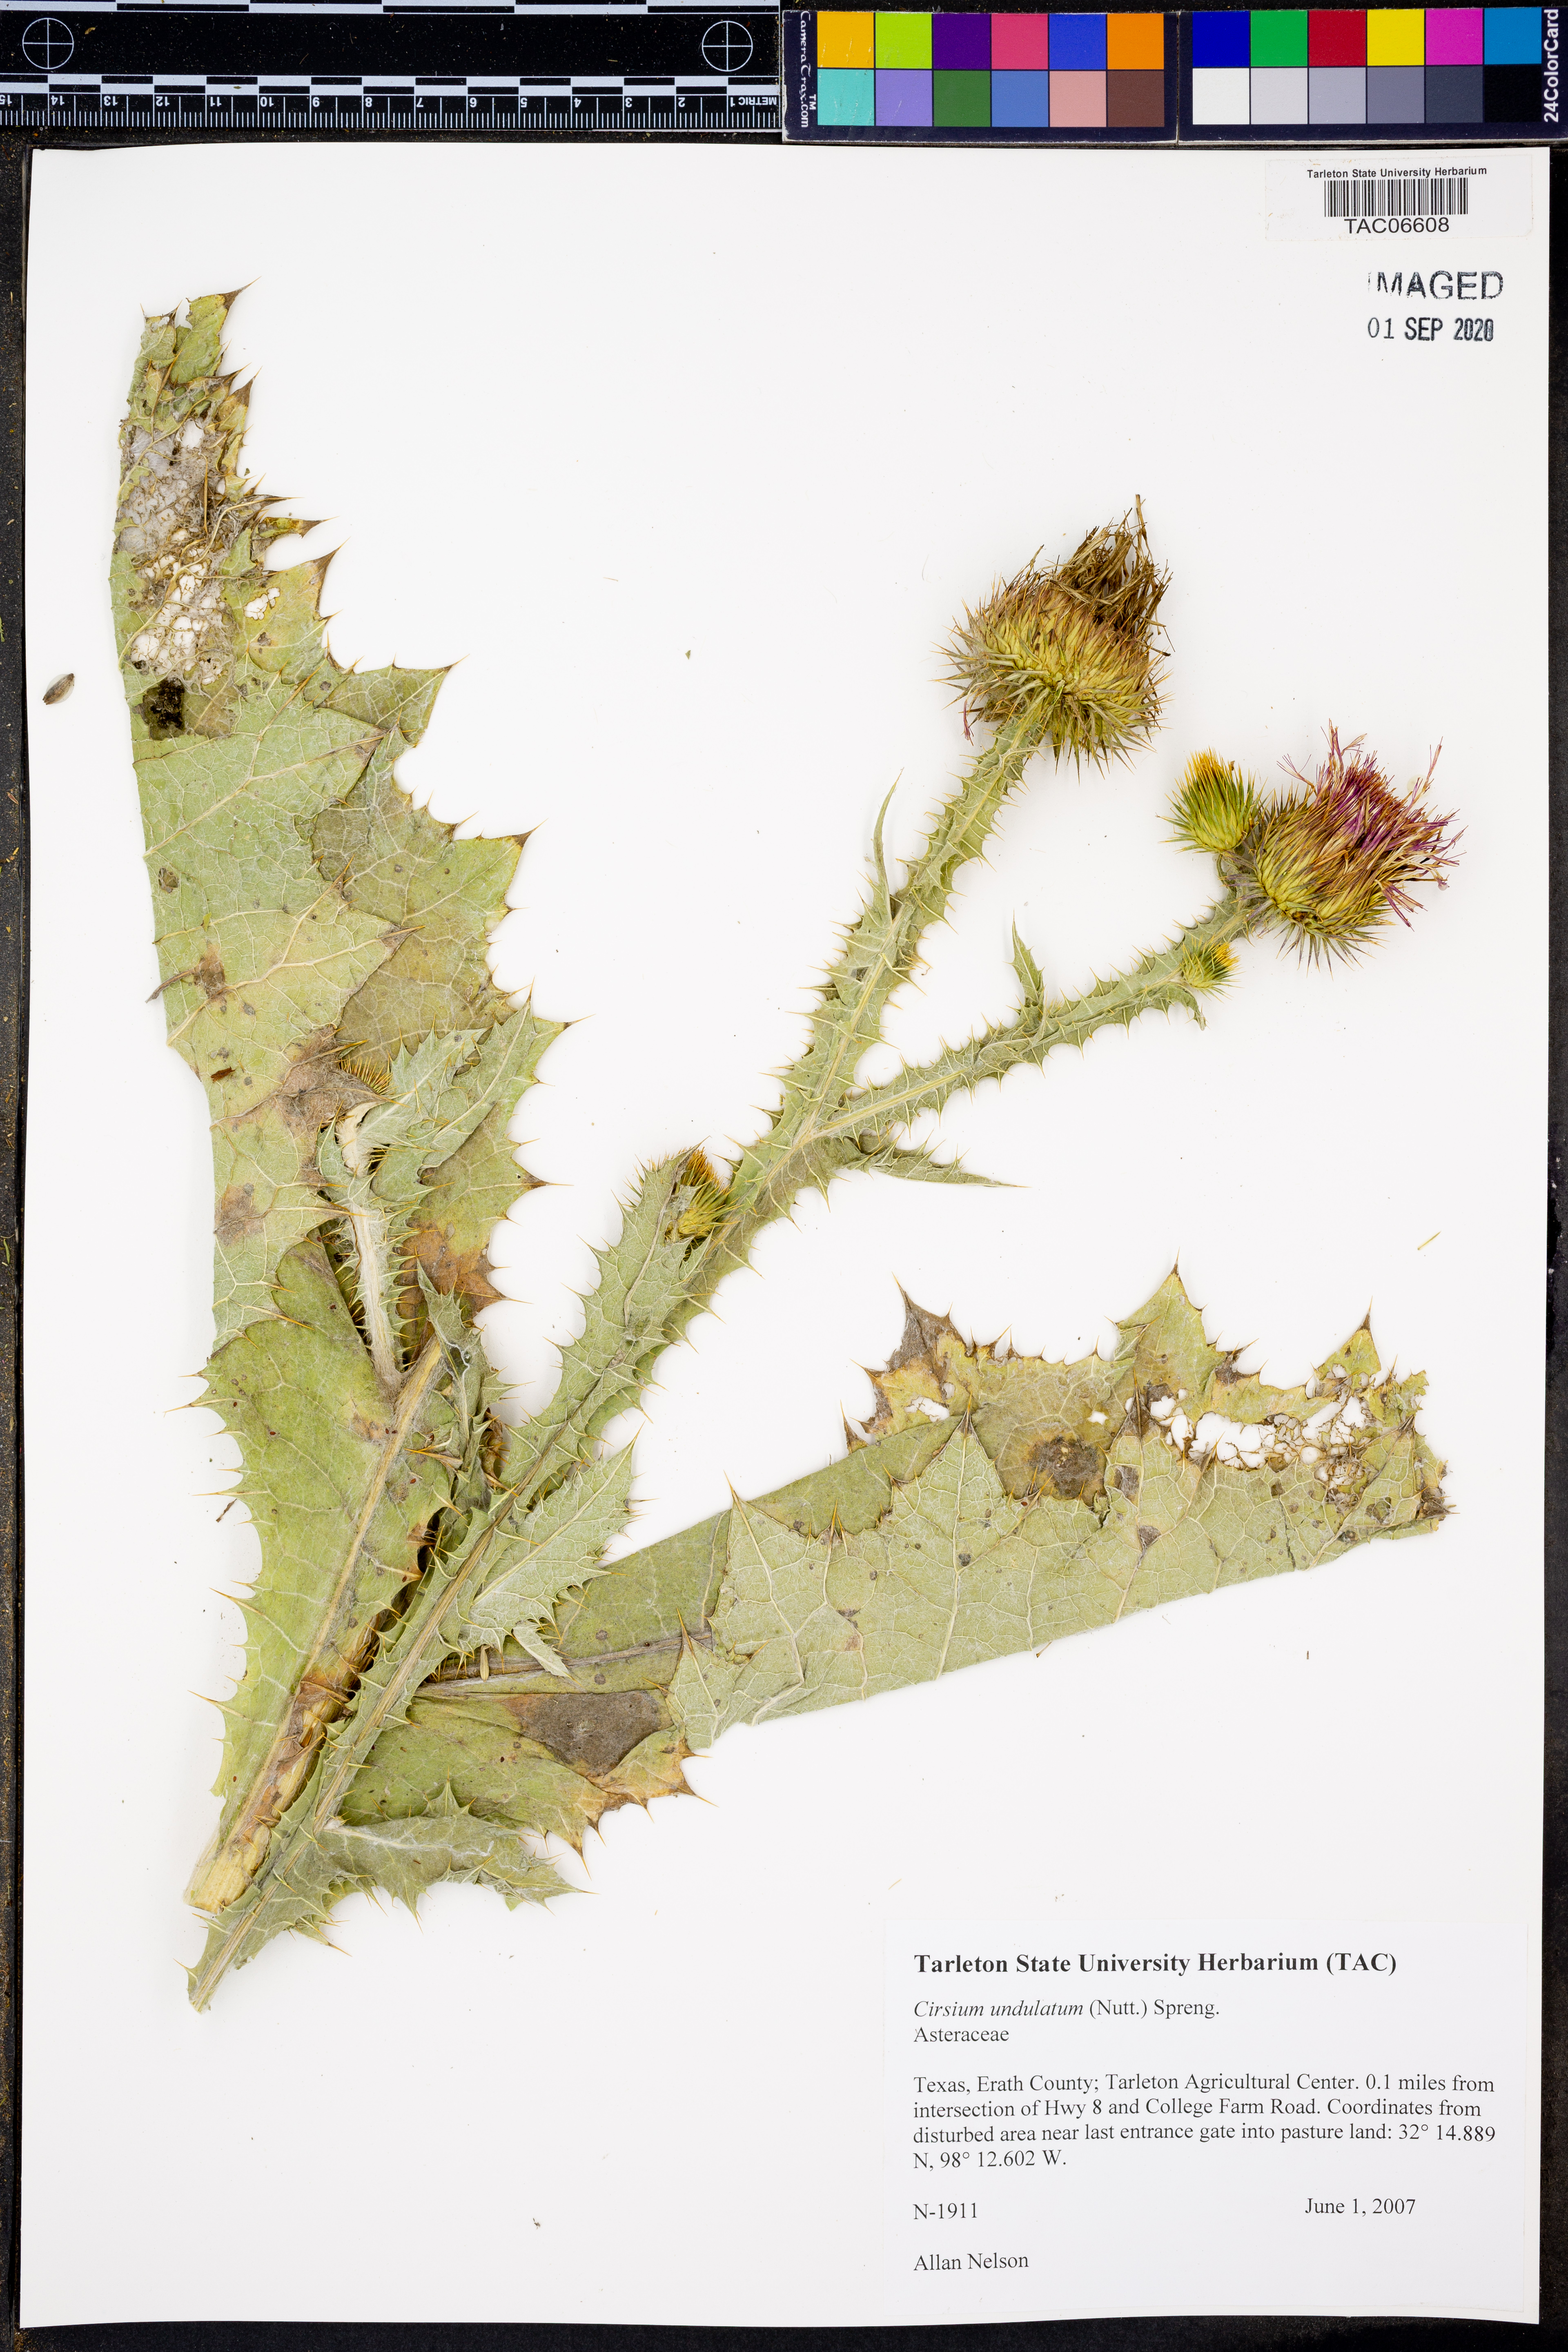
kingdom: Plantae
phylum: Tracheophyta
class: Magnoliopsida
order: Asterales
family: Asteraceae
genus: Cirsium
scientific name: Cirsium undulatum
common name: Pasture thistle
